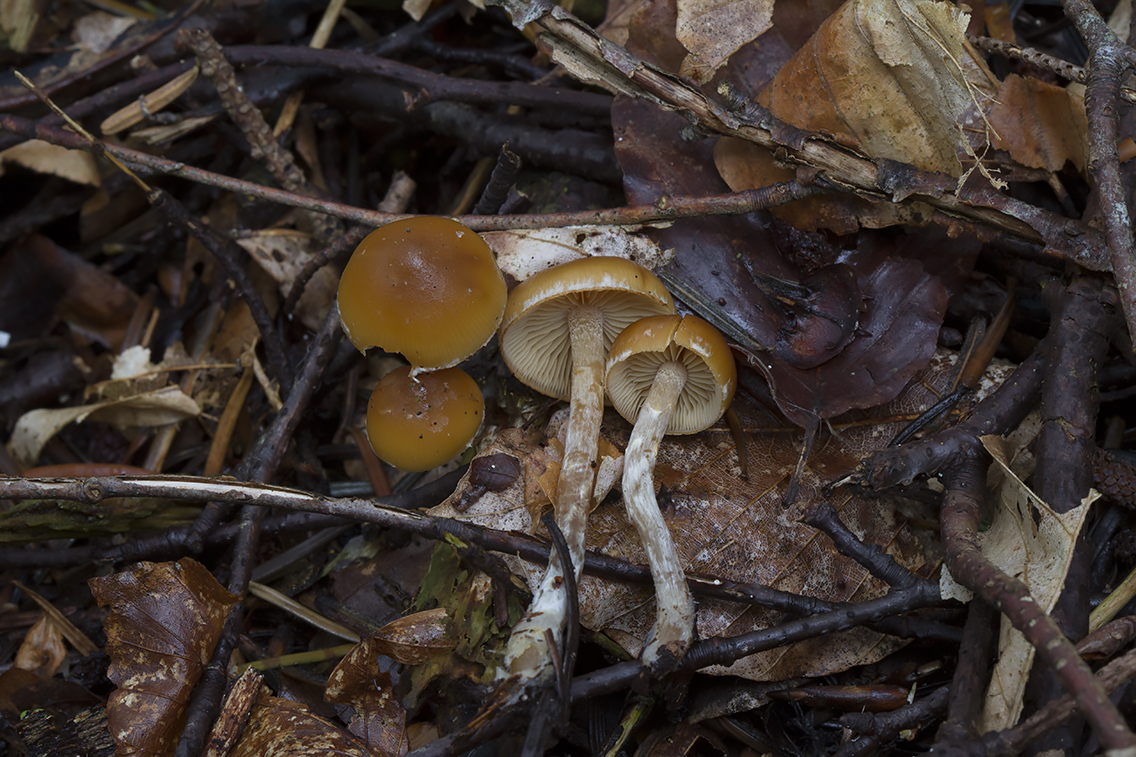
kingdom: Fungi
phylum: Basidiomycota
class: Agaricomycetes
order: Agaricales
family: Hymenogastraceae
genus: Galerina
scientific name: Galerina sideroides
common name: træflis-hjelmhat
